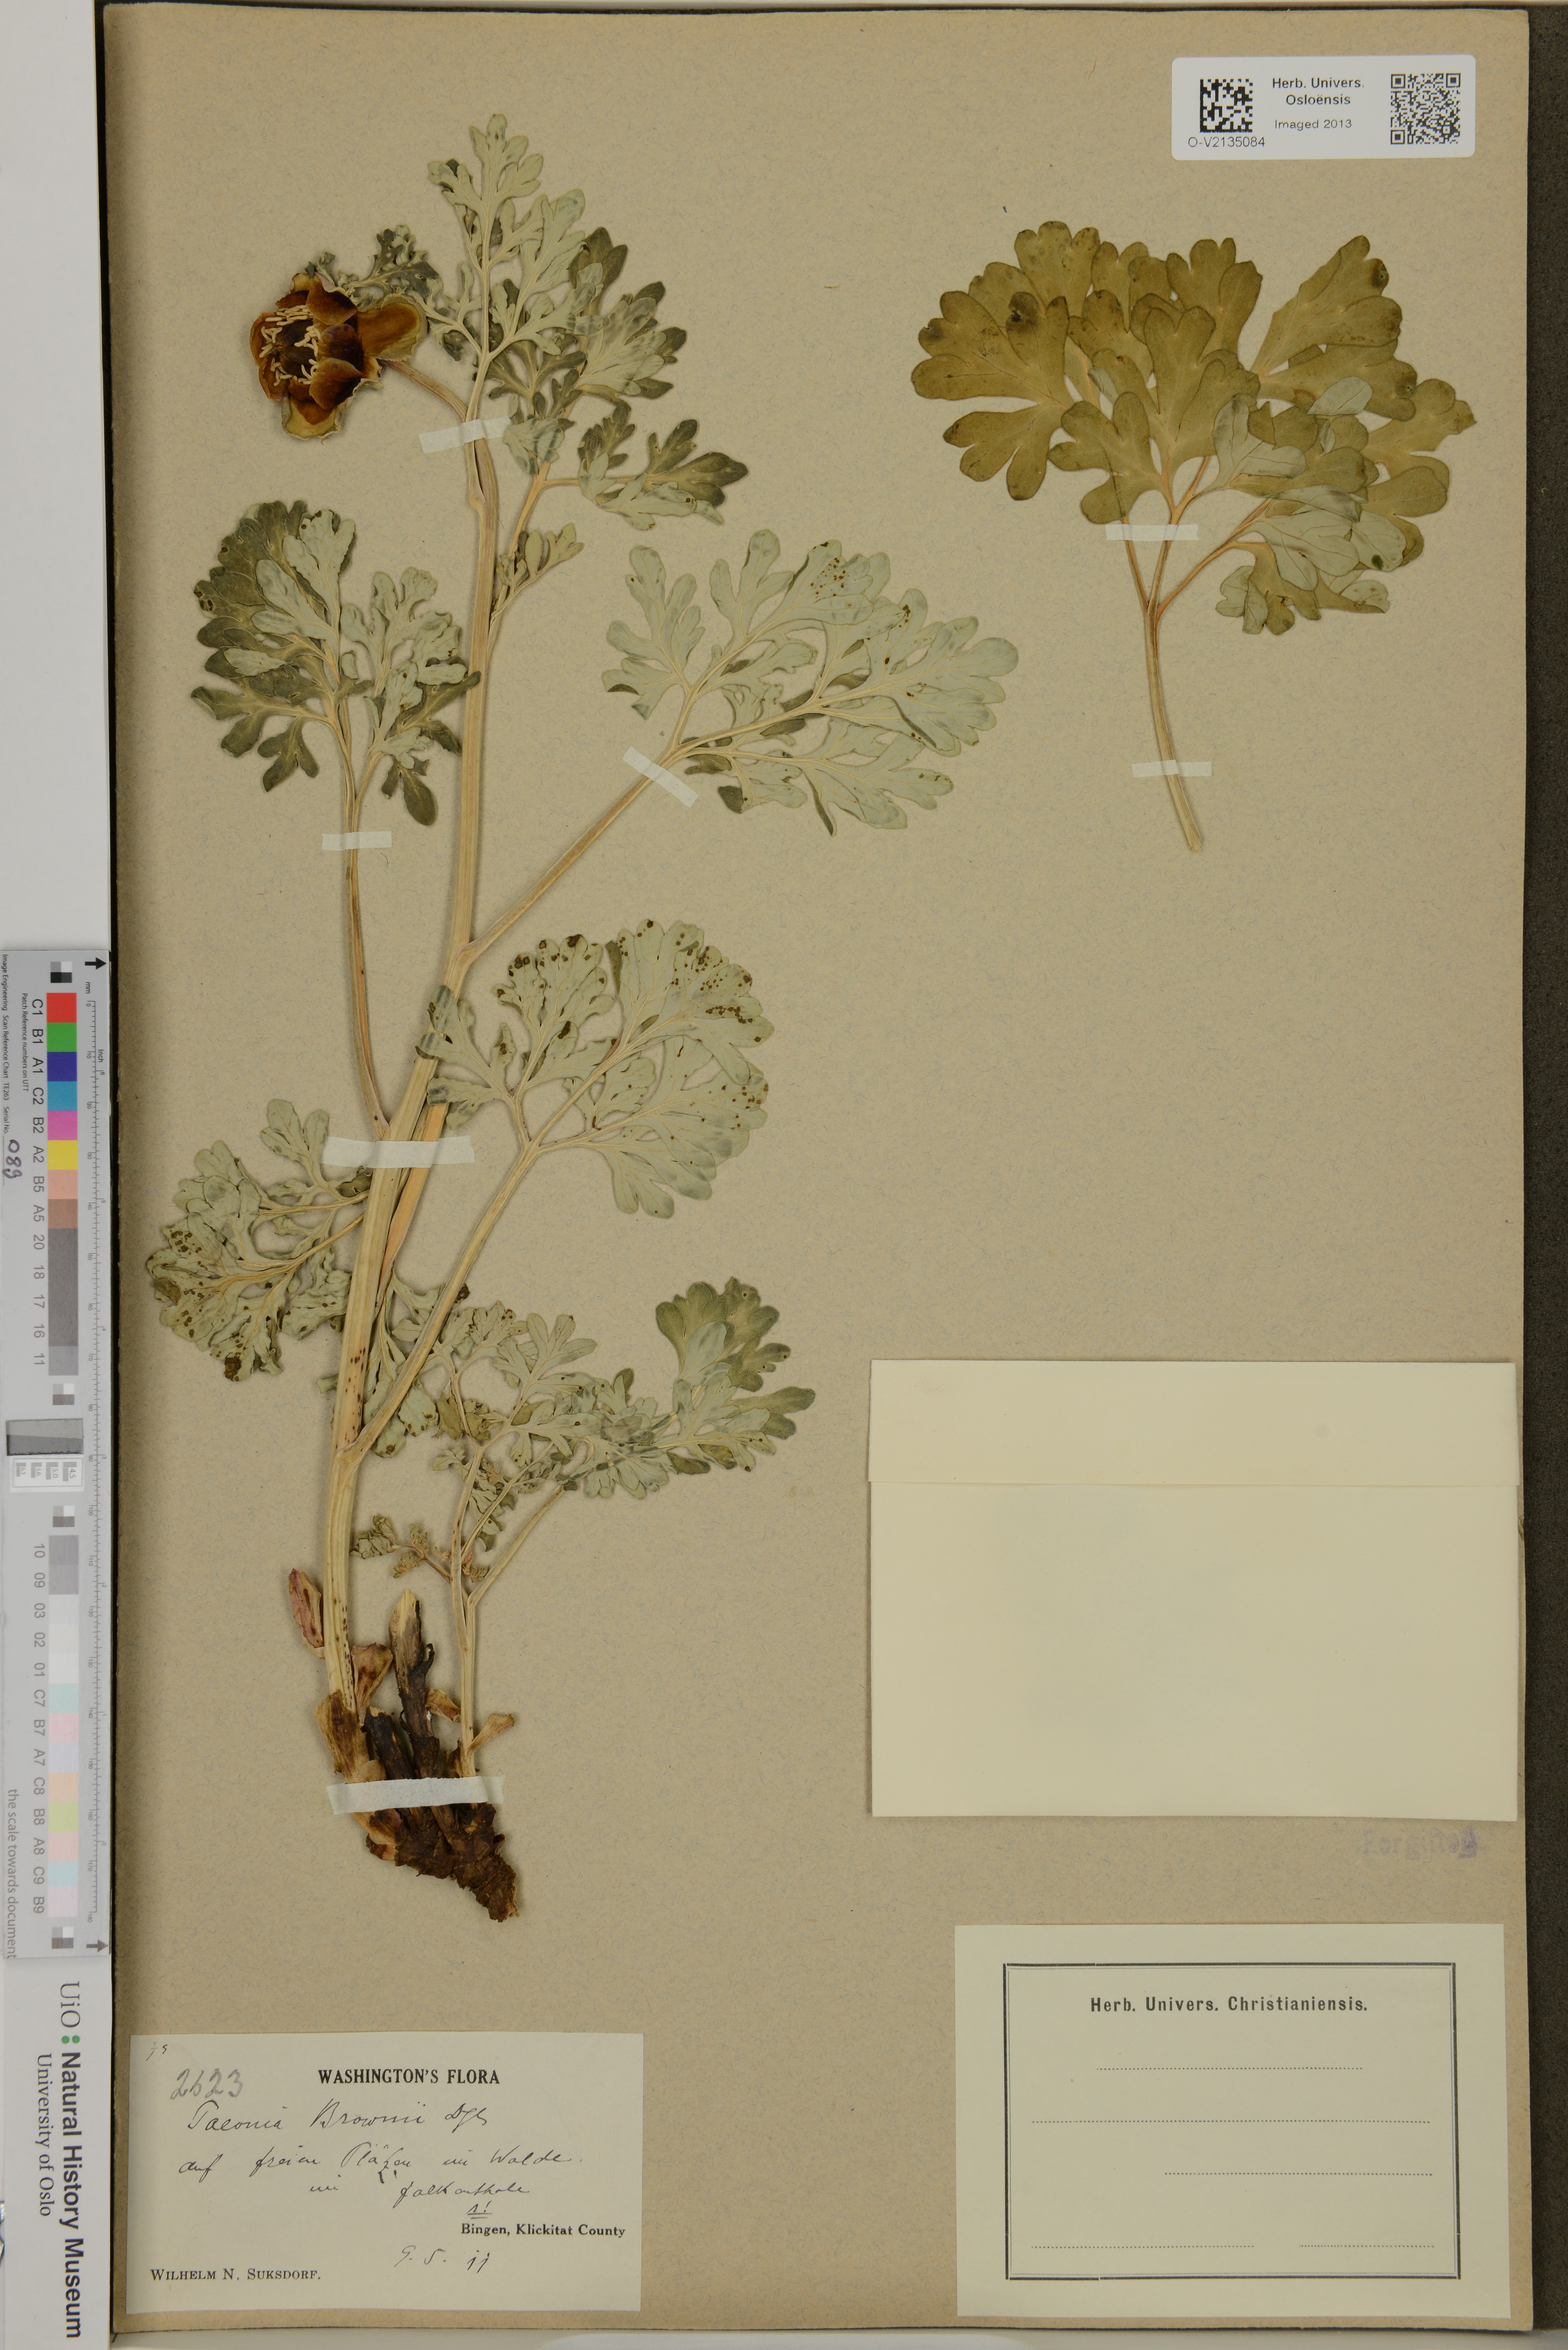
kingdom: Plantae
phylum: Tracheophyta
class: Magnoliopsida
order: Saxifragales
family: Paeoniaceae
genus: Paeonia
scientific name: Paeonia brownii
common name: Brown's peony
